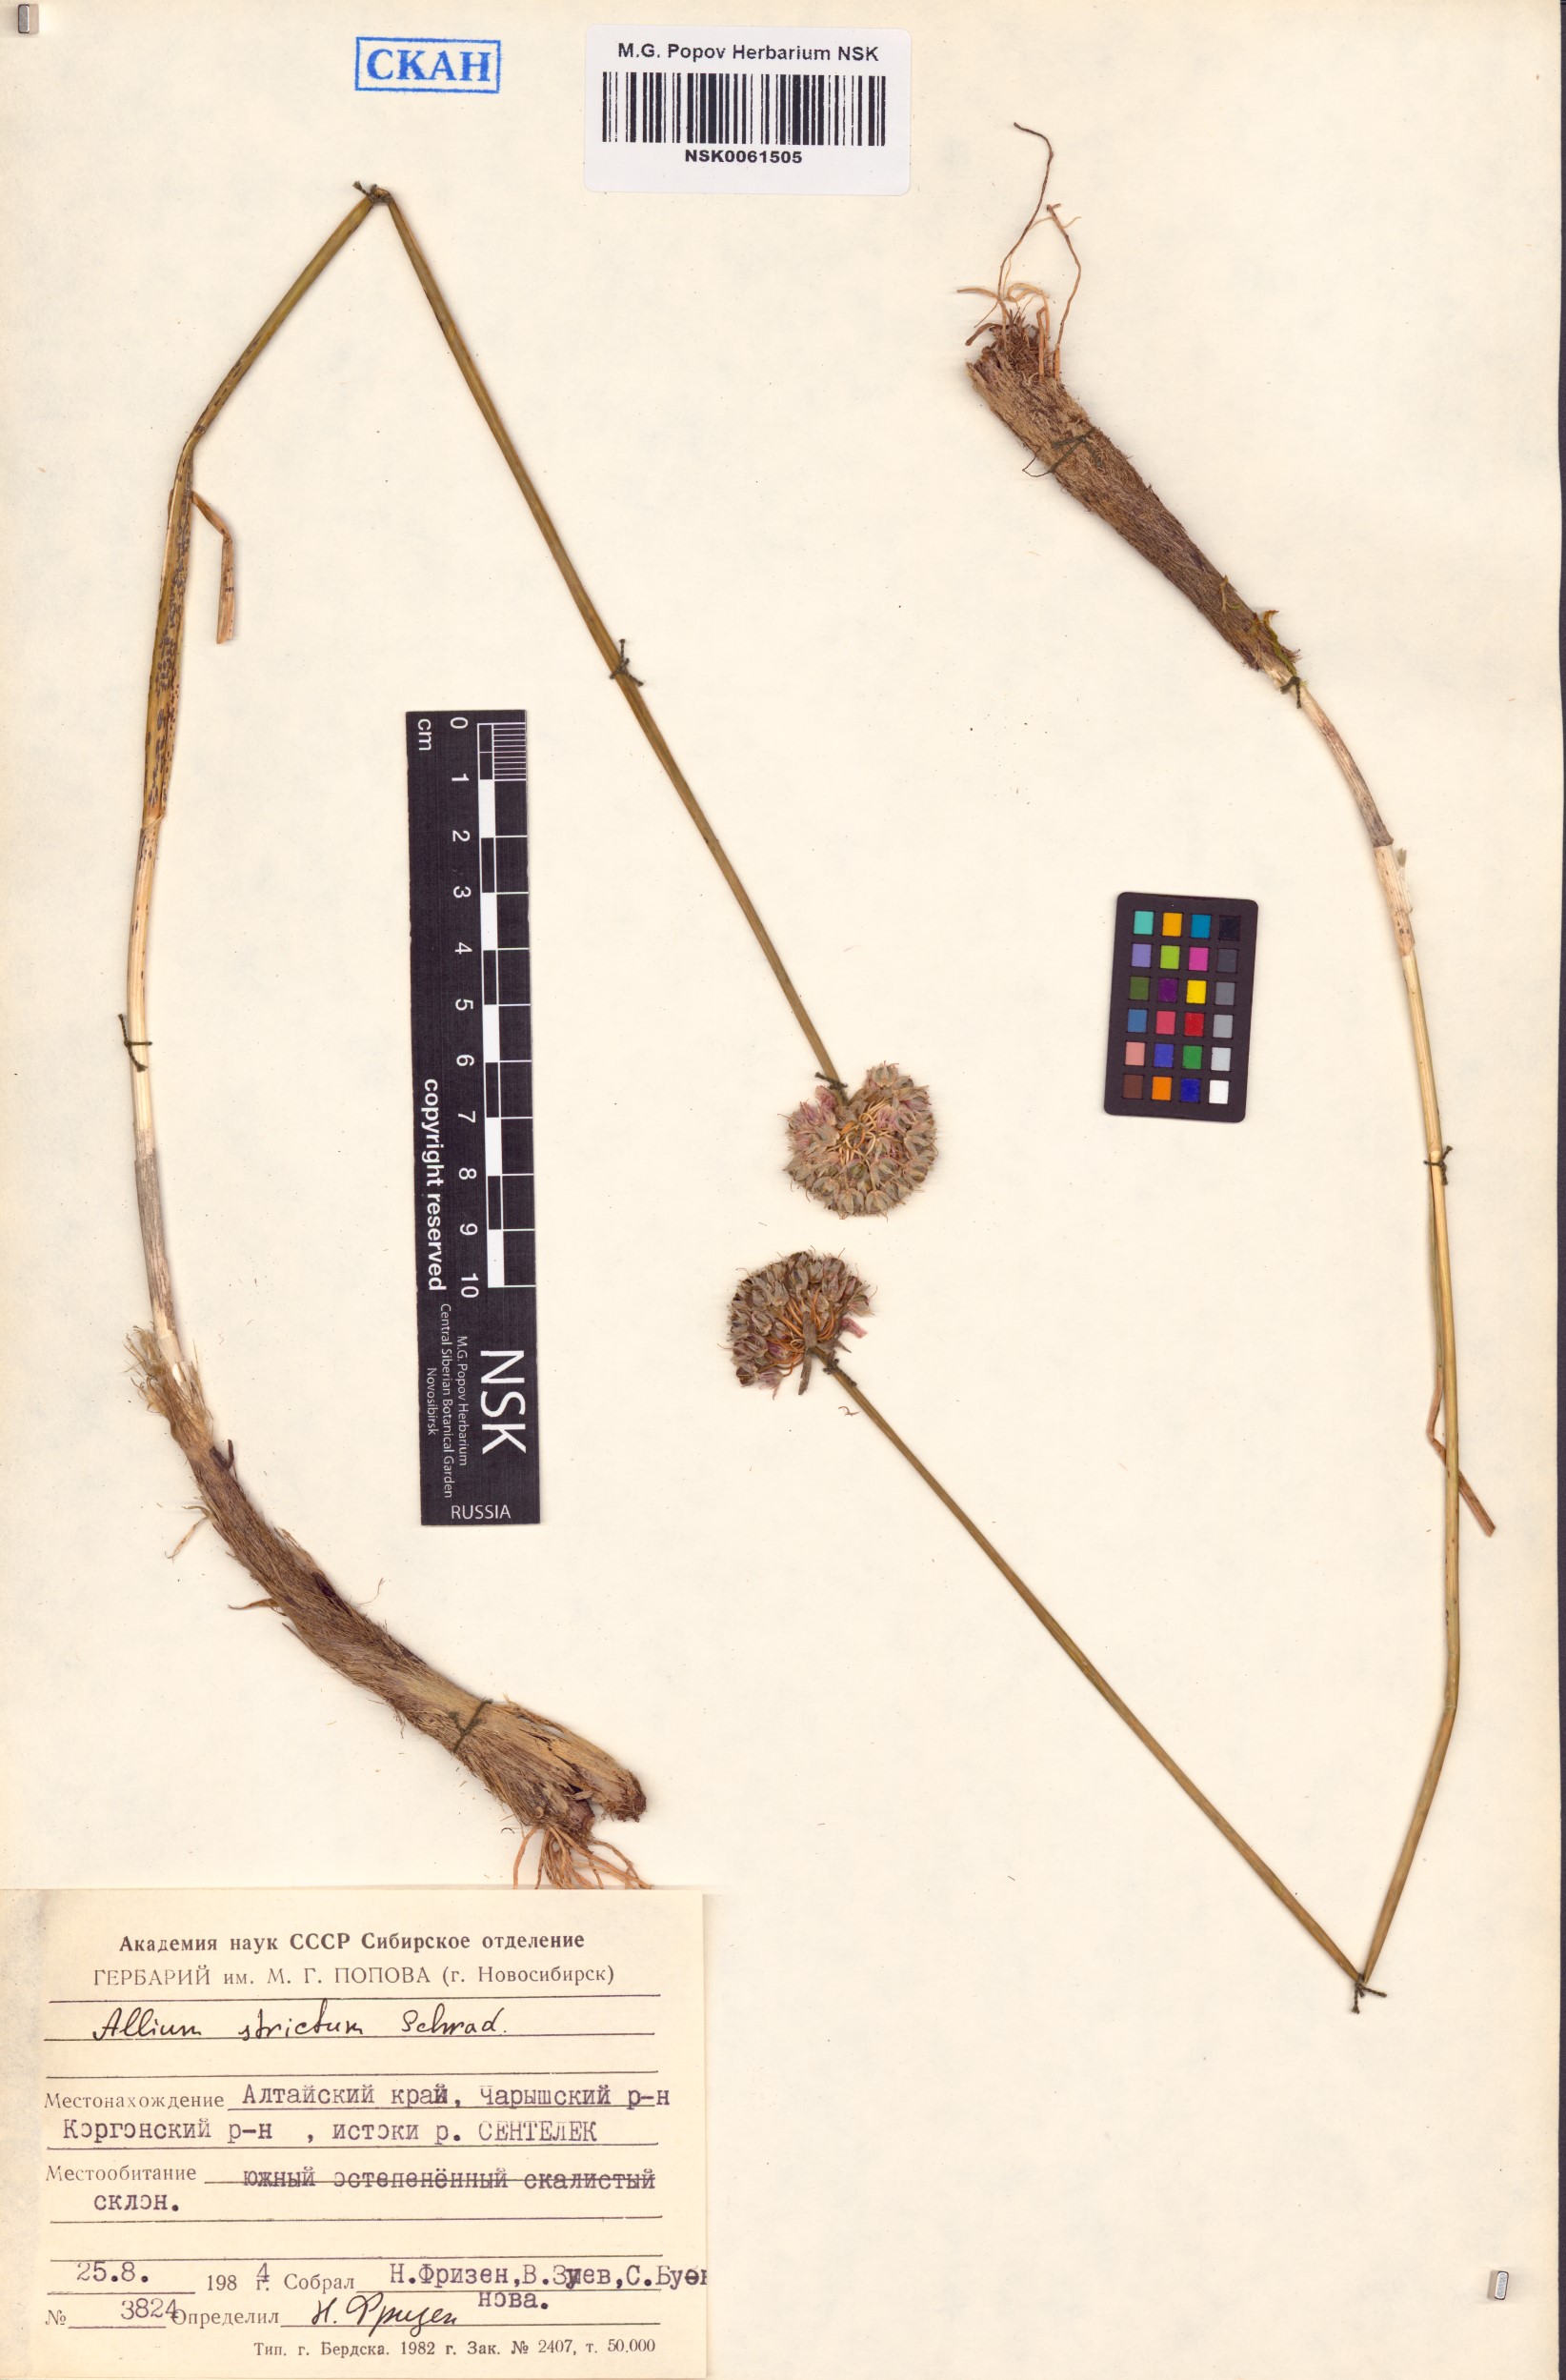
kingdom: Plantae
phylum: Tracheophyta
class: Liliopsida
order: Asparagales
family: Amaryllidaceae
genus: Allium
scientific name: Allium strictum
